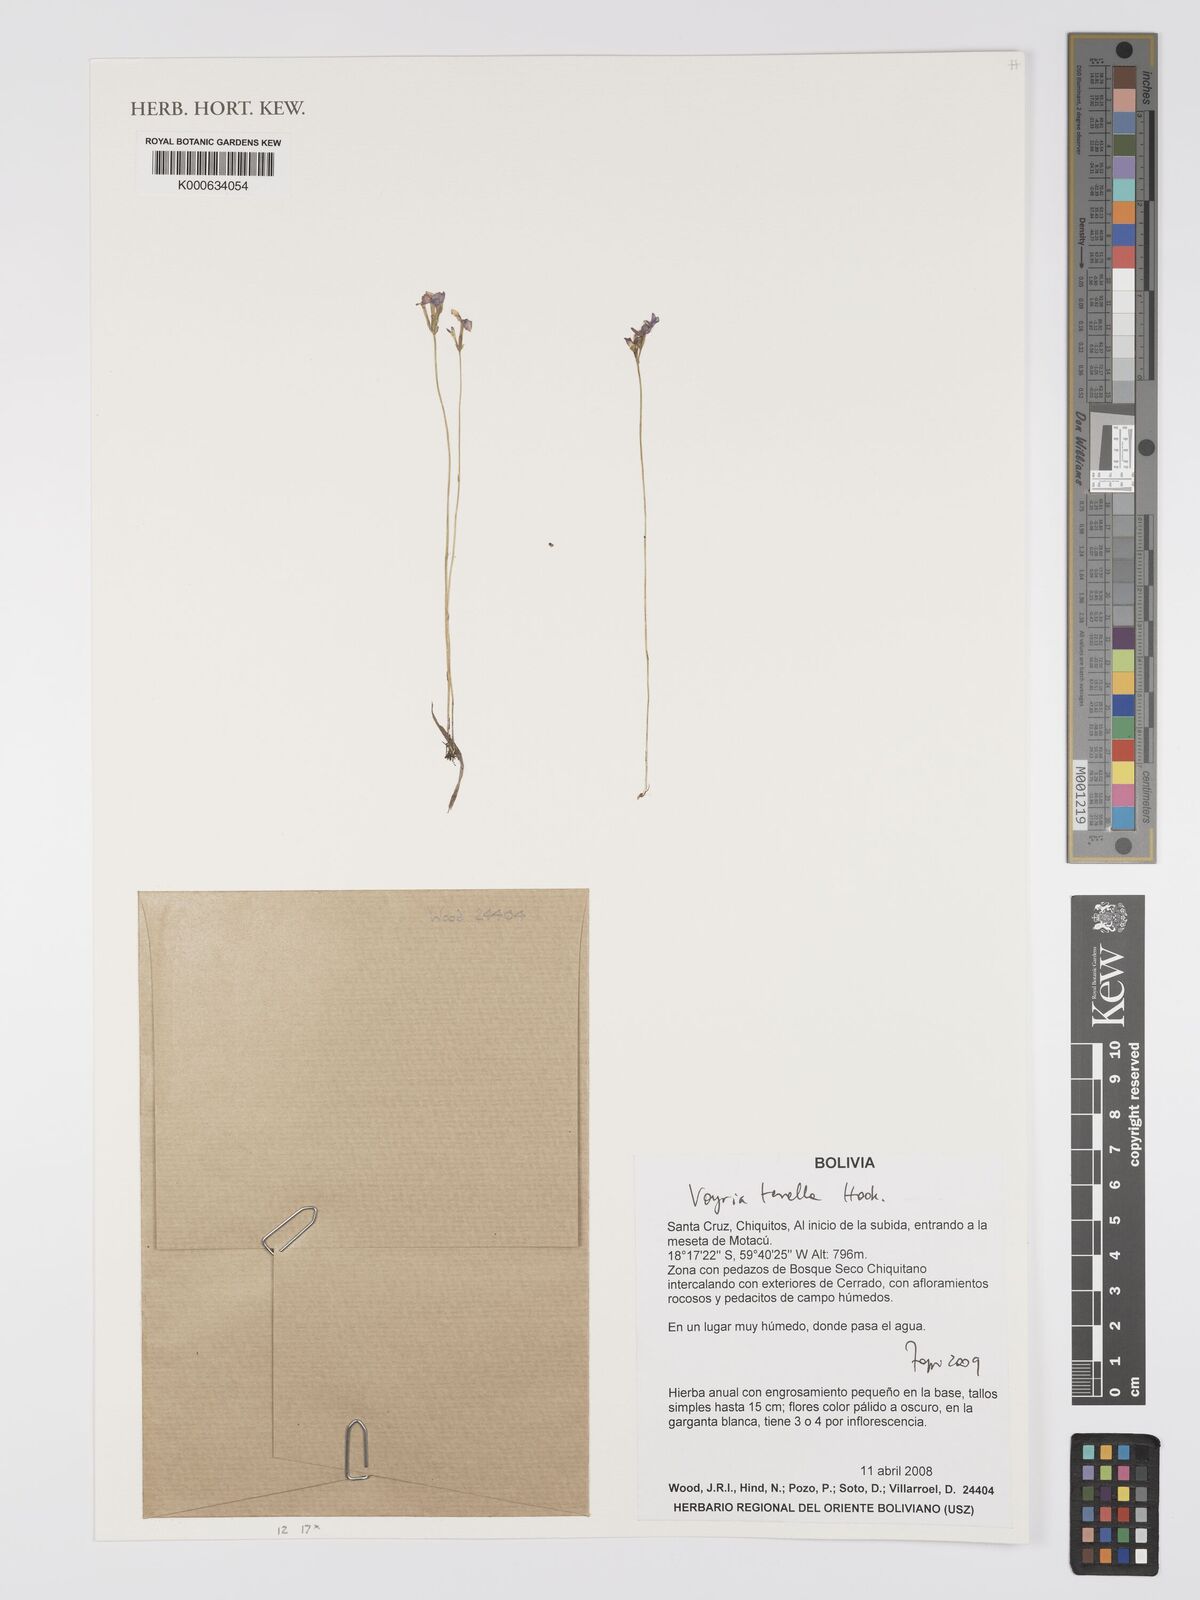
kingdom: Plantae
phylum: Tracheophyta
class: Magnoliopsida
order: Gentianales
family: Gentianaceae
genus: Gentianella
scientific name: Gentianella
